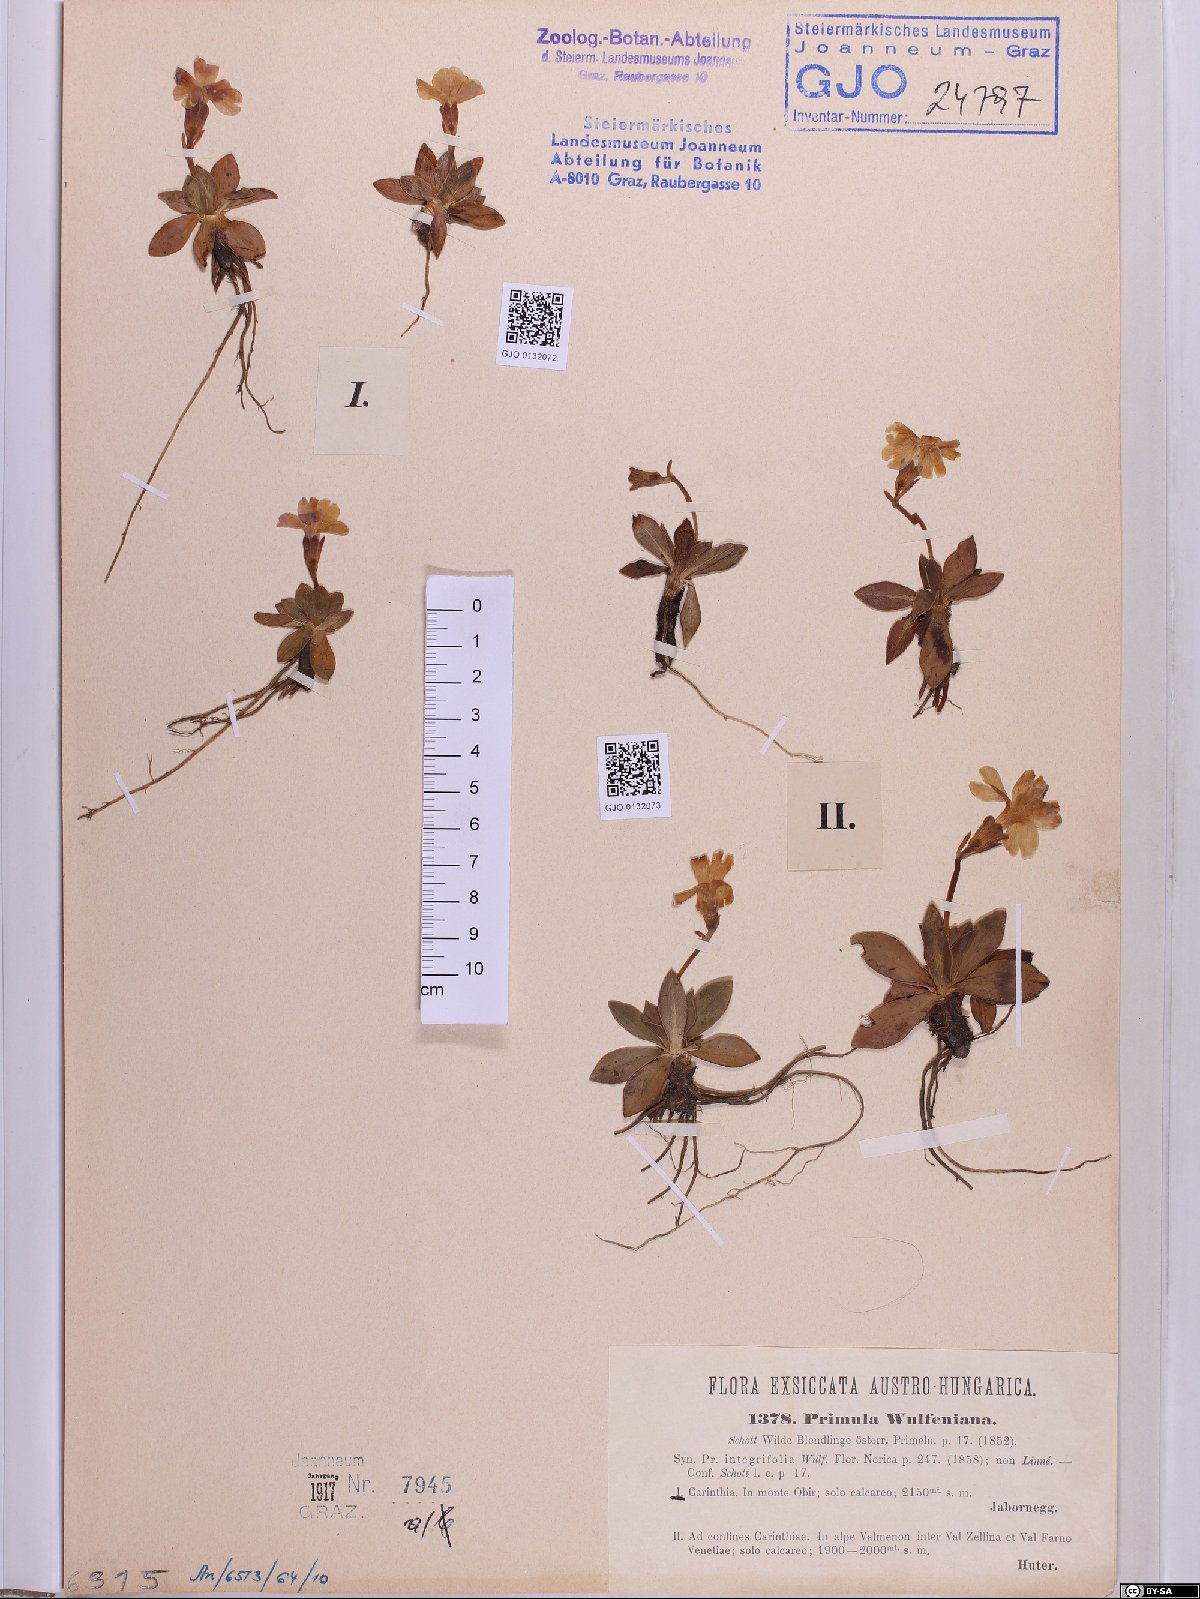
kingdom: Plantae
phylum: Tracheophyta
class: Magnoliopsida
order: Ericales
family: Primulaceae
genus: Primula
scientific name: Primula wulfeniana
